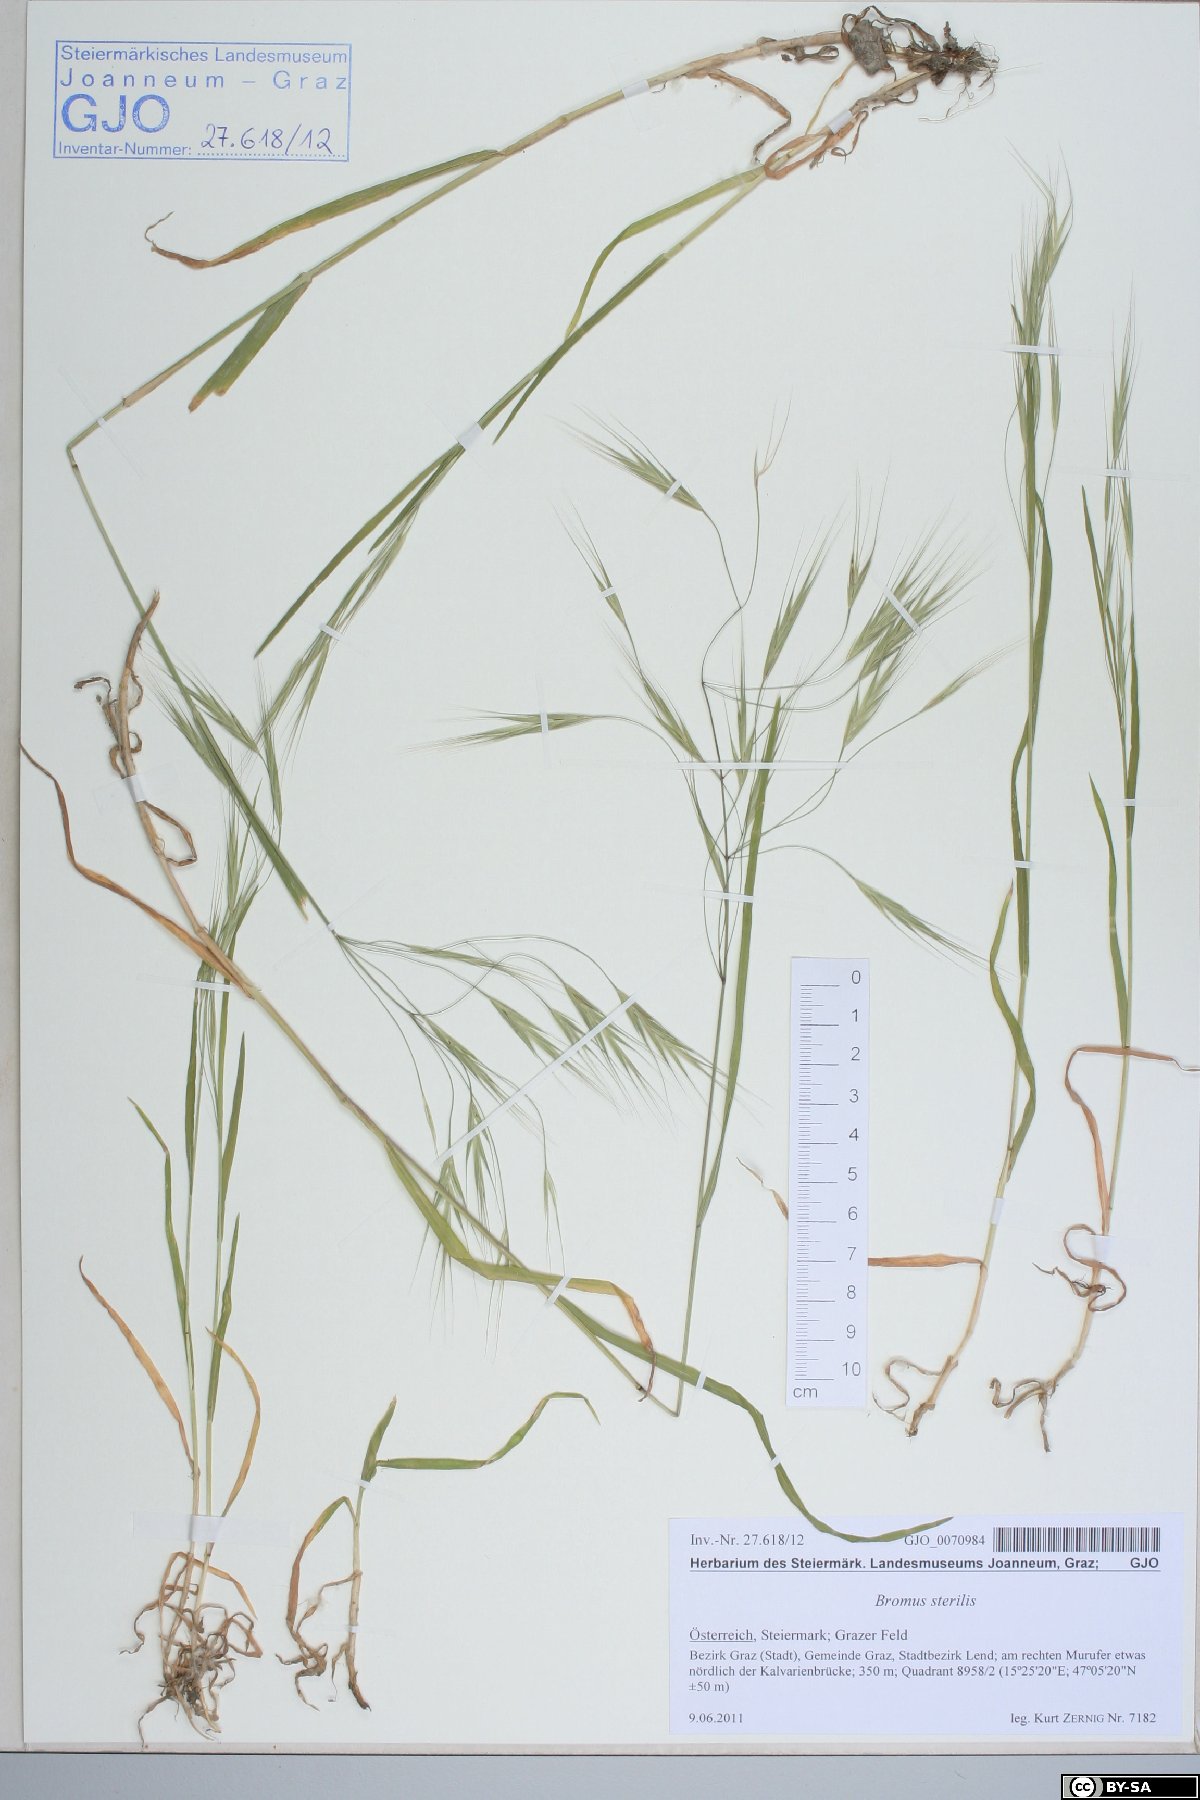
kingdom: Plantae
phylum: Tracheophyta
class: Liliopsida
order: Poales
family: Poaceae
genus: Bromus
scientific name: Bromus sterilis
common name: Poverty brome
